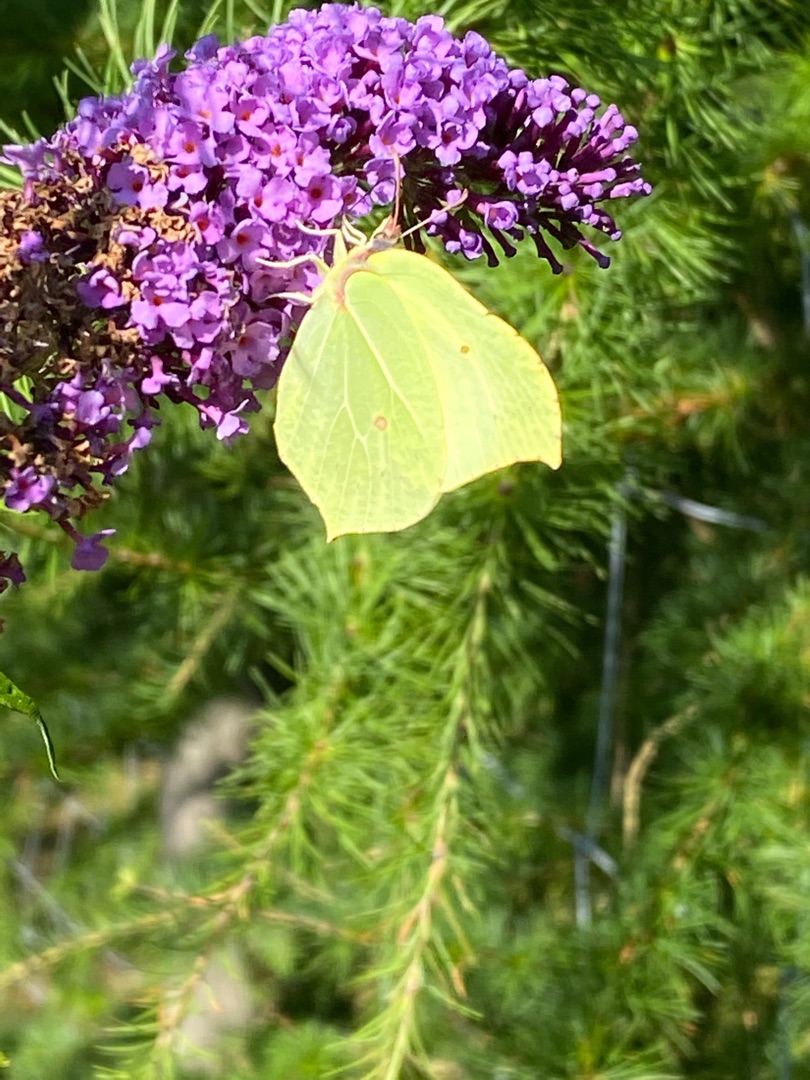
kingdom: Animalia
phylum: Arthropoda
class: Insecta
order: Lepidoptera
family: Pieridae
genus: Gonepteryx
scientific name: Gonepteryx rhamni
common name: Citronsommerfugl
